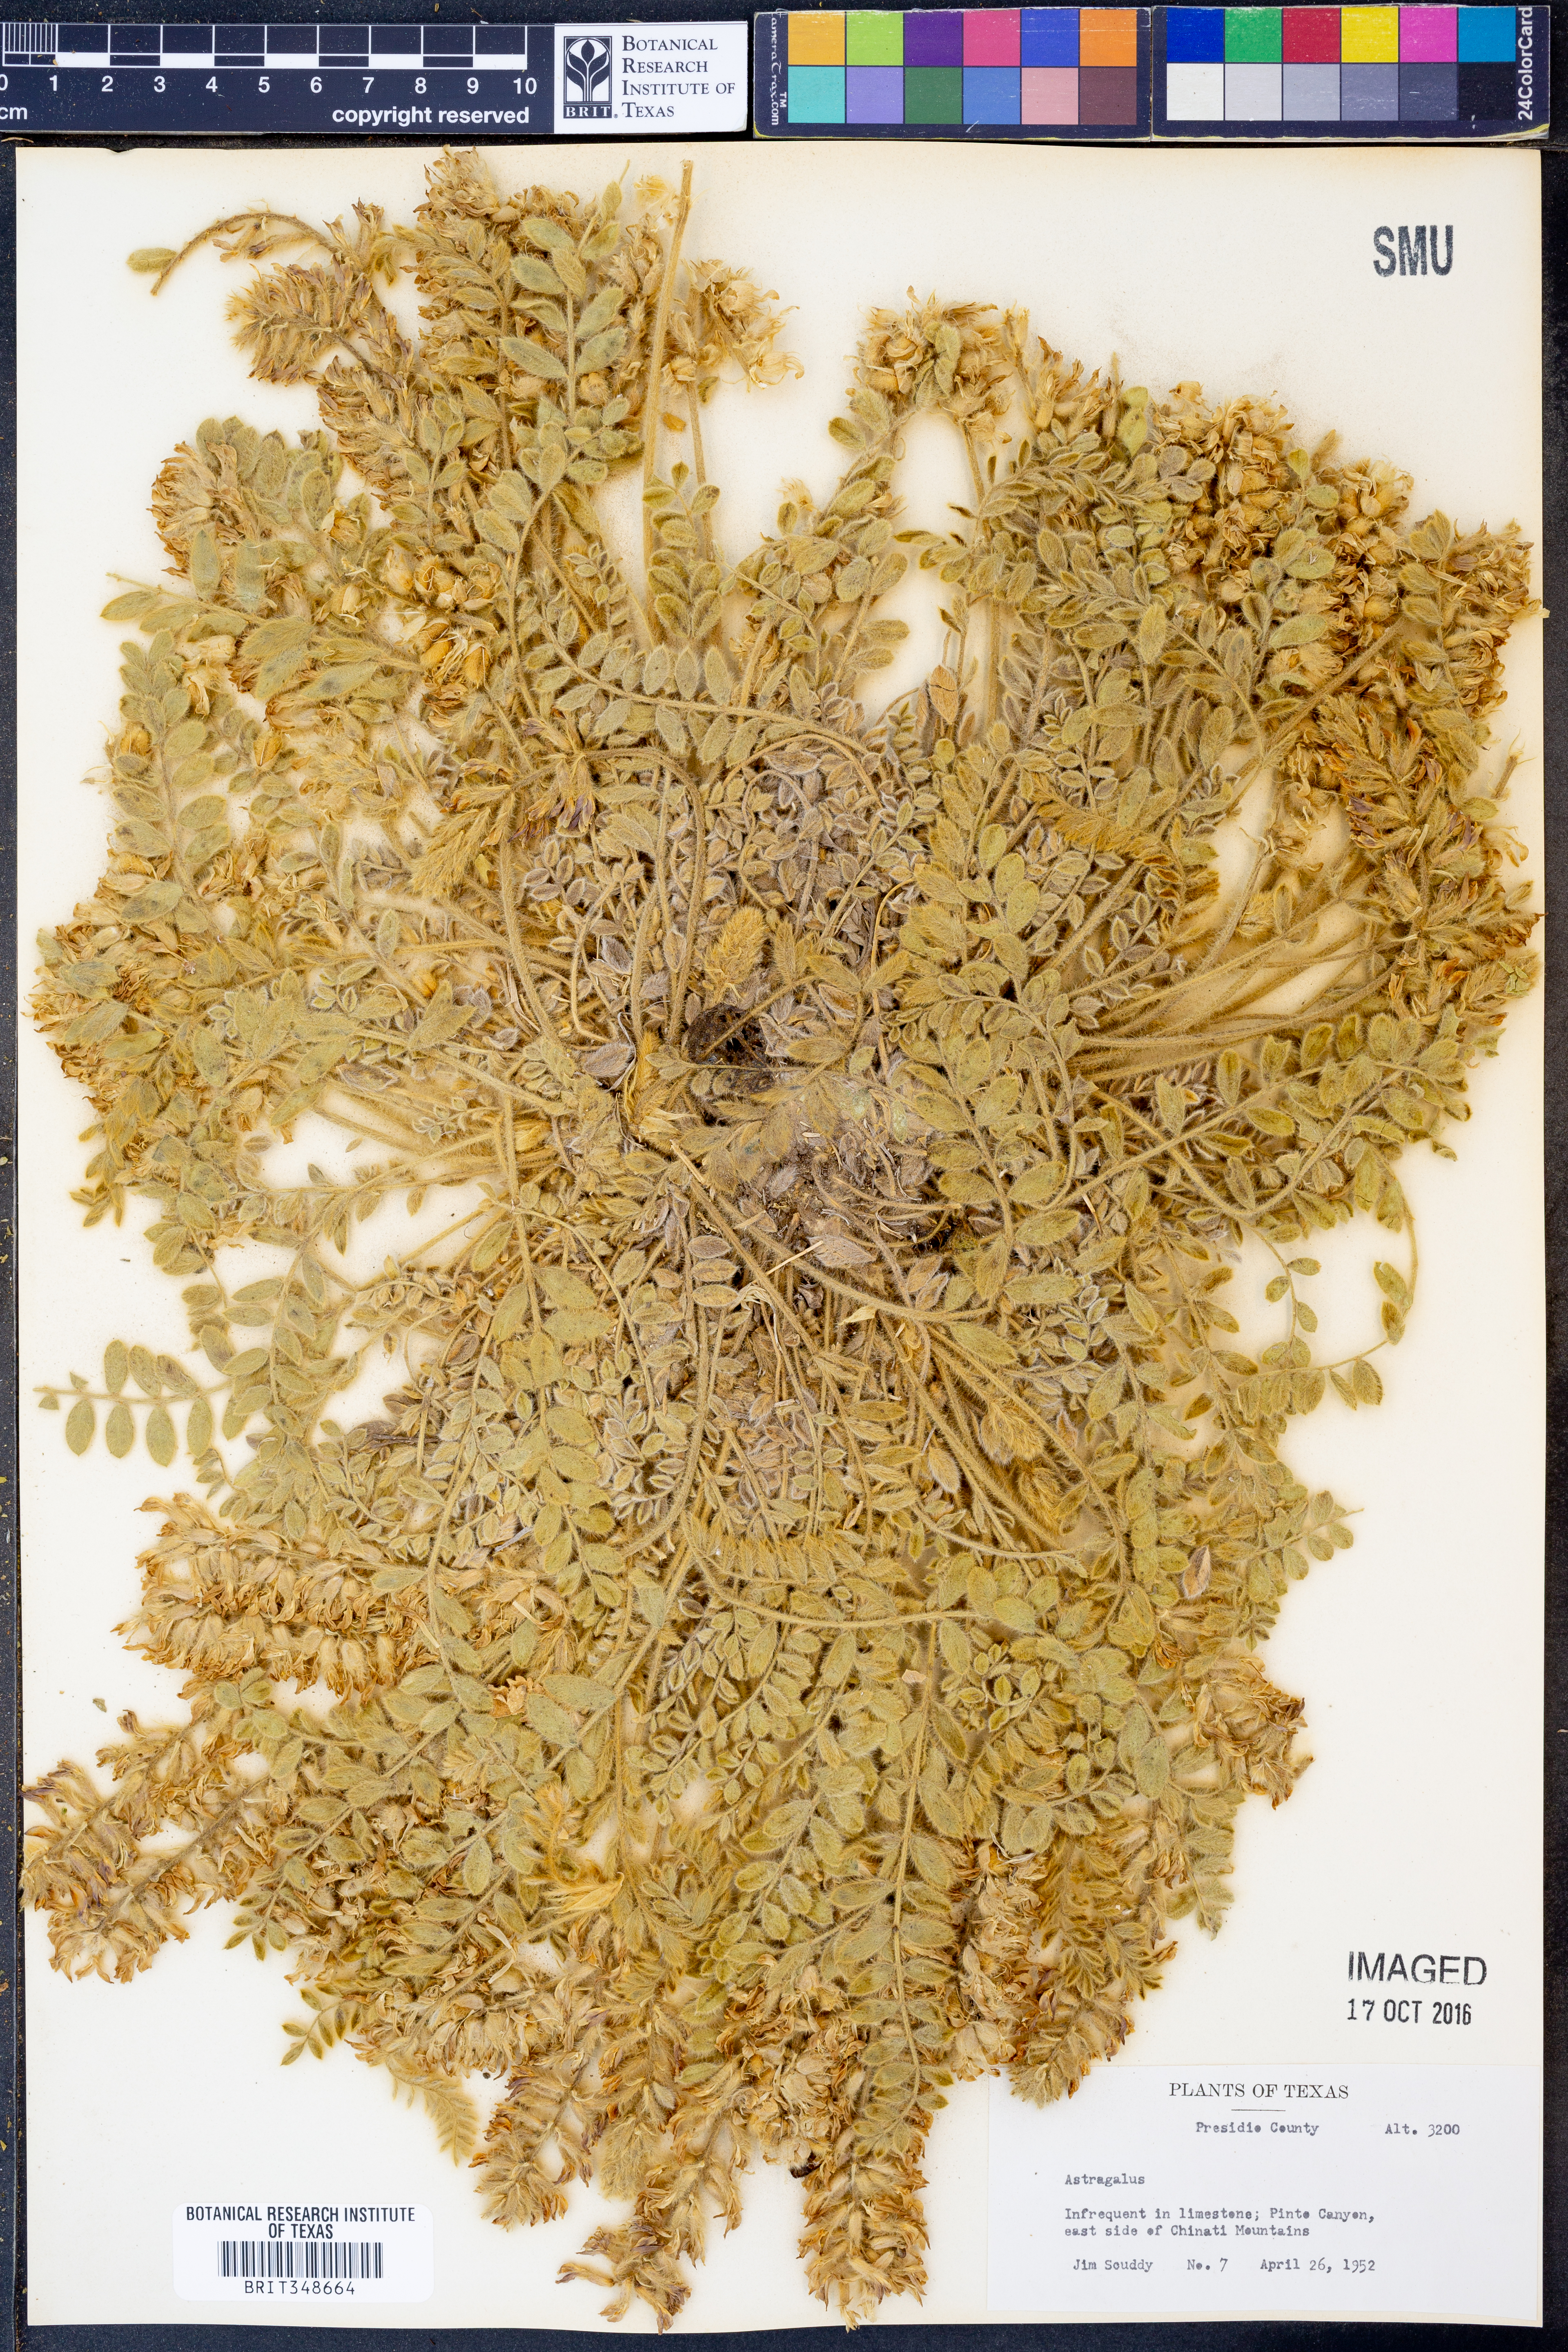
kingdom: Plantae
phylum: Tracheophyta
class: Magnoliopsida
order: Fabales
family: Fabaceae
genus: Astragalus
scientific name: Astragalus
